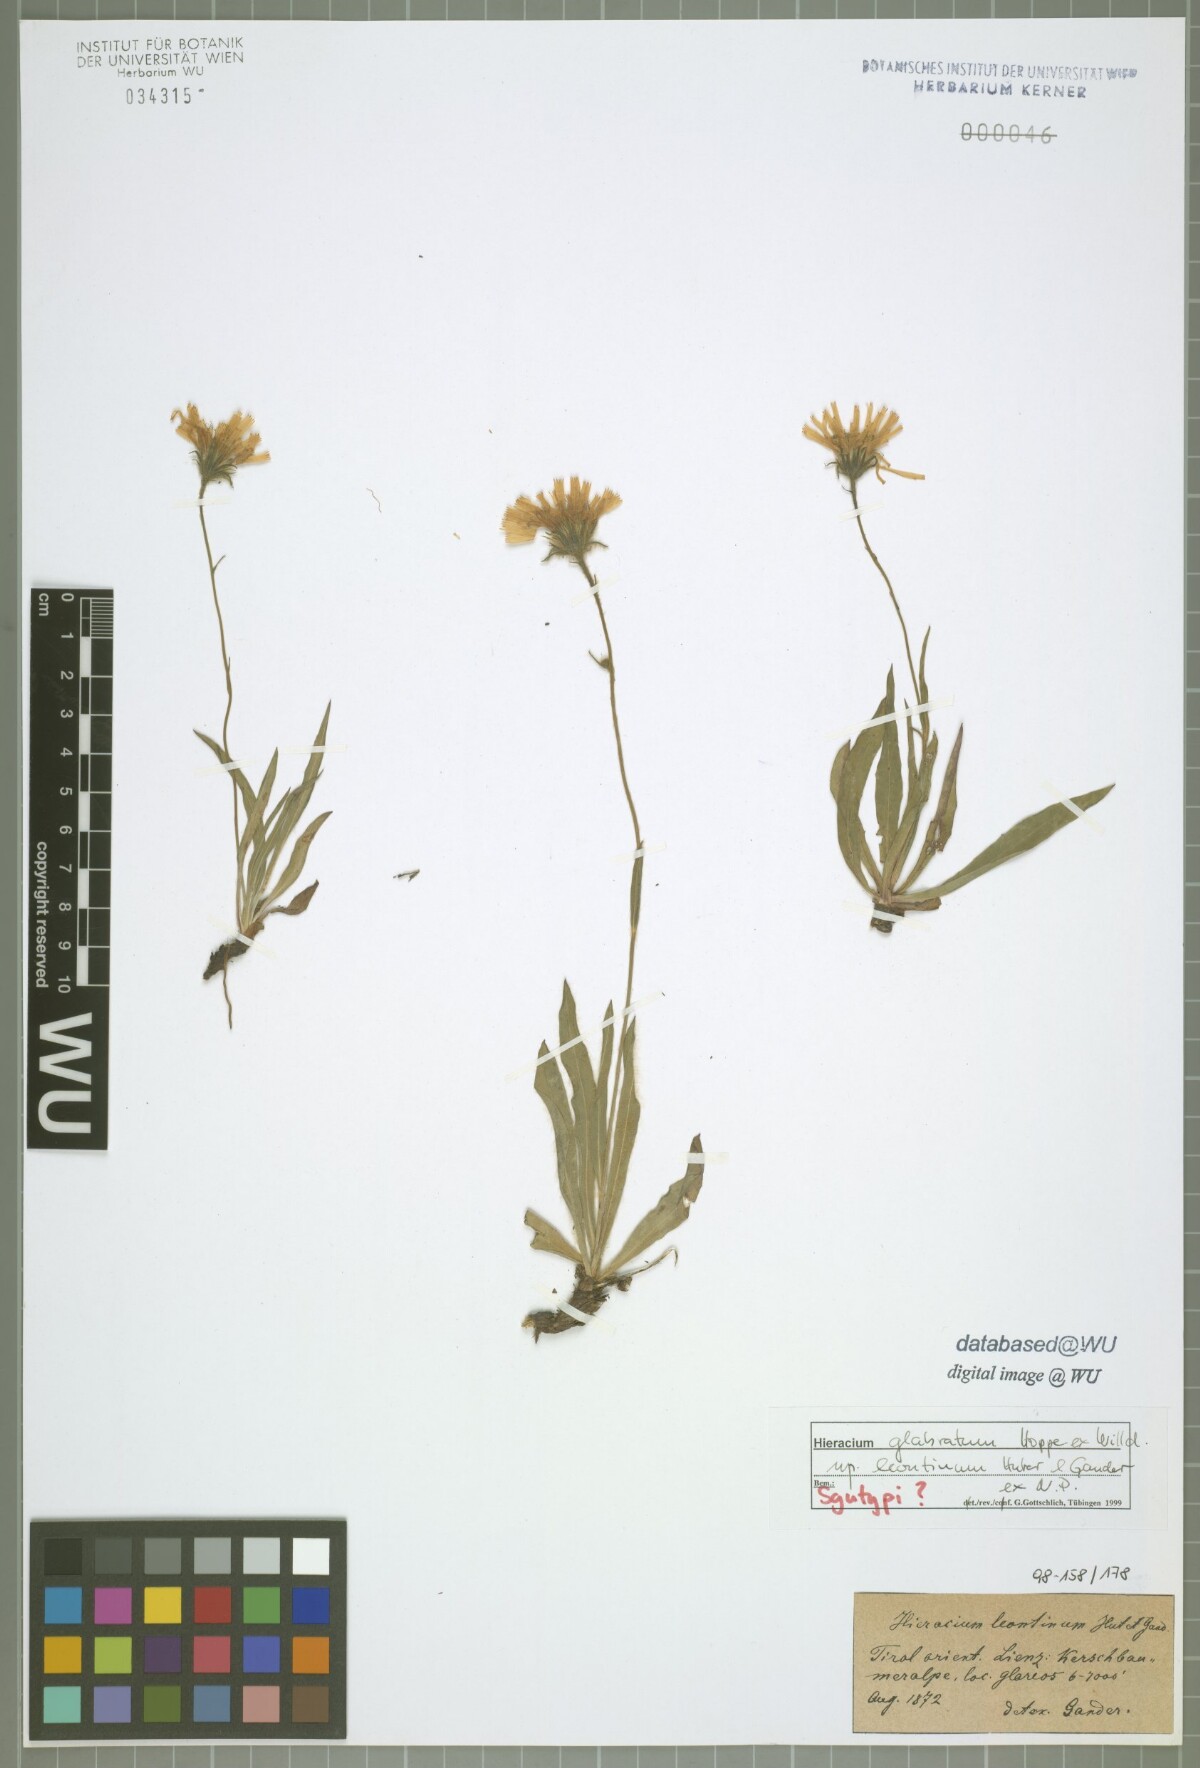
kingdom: Plantae
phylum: Tracheophyta
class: Magnoliopsida
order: Asterales
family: Asteraceae
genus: Hieracium
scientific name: Hieracium glabratum
